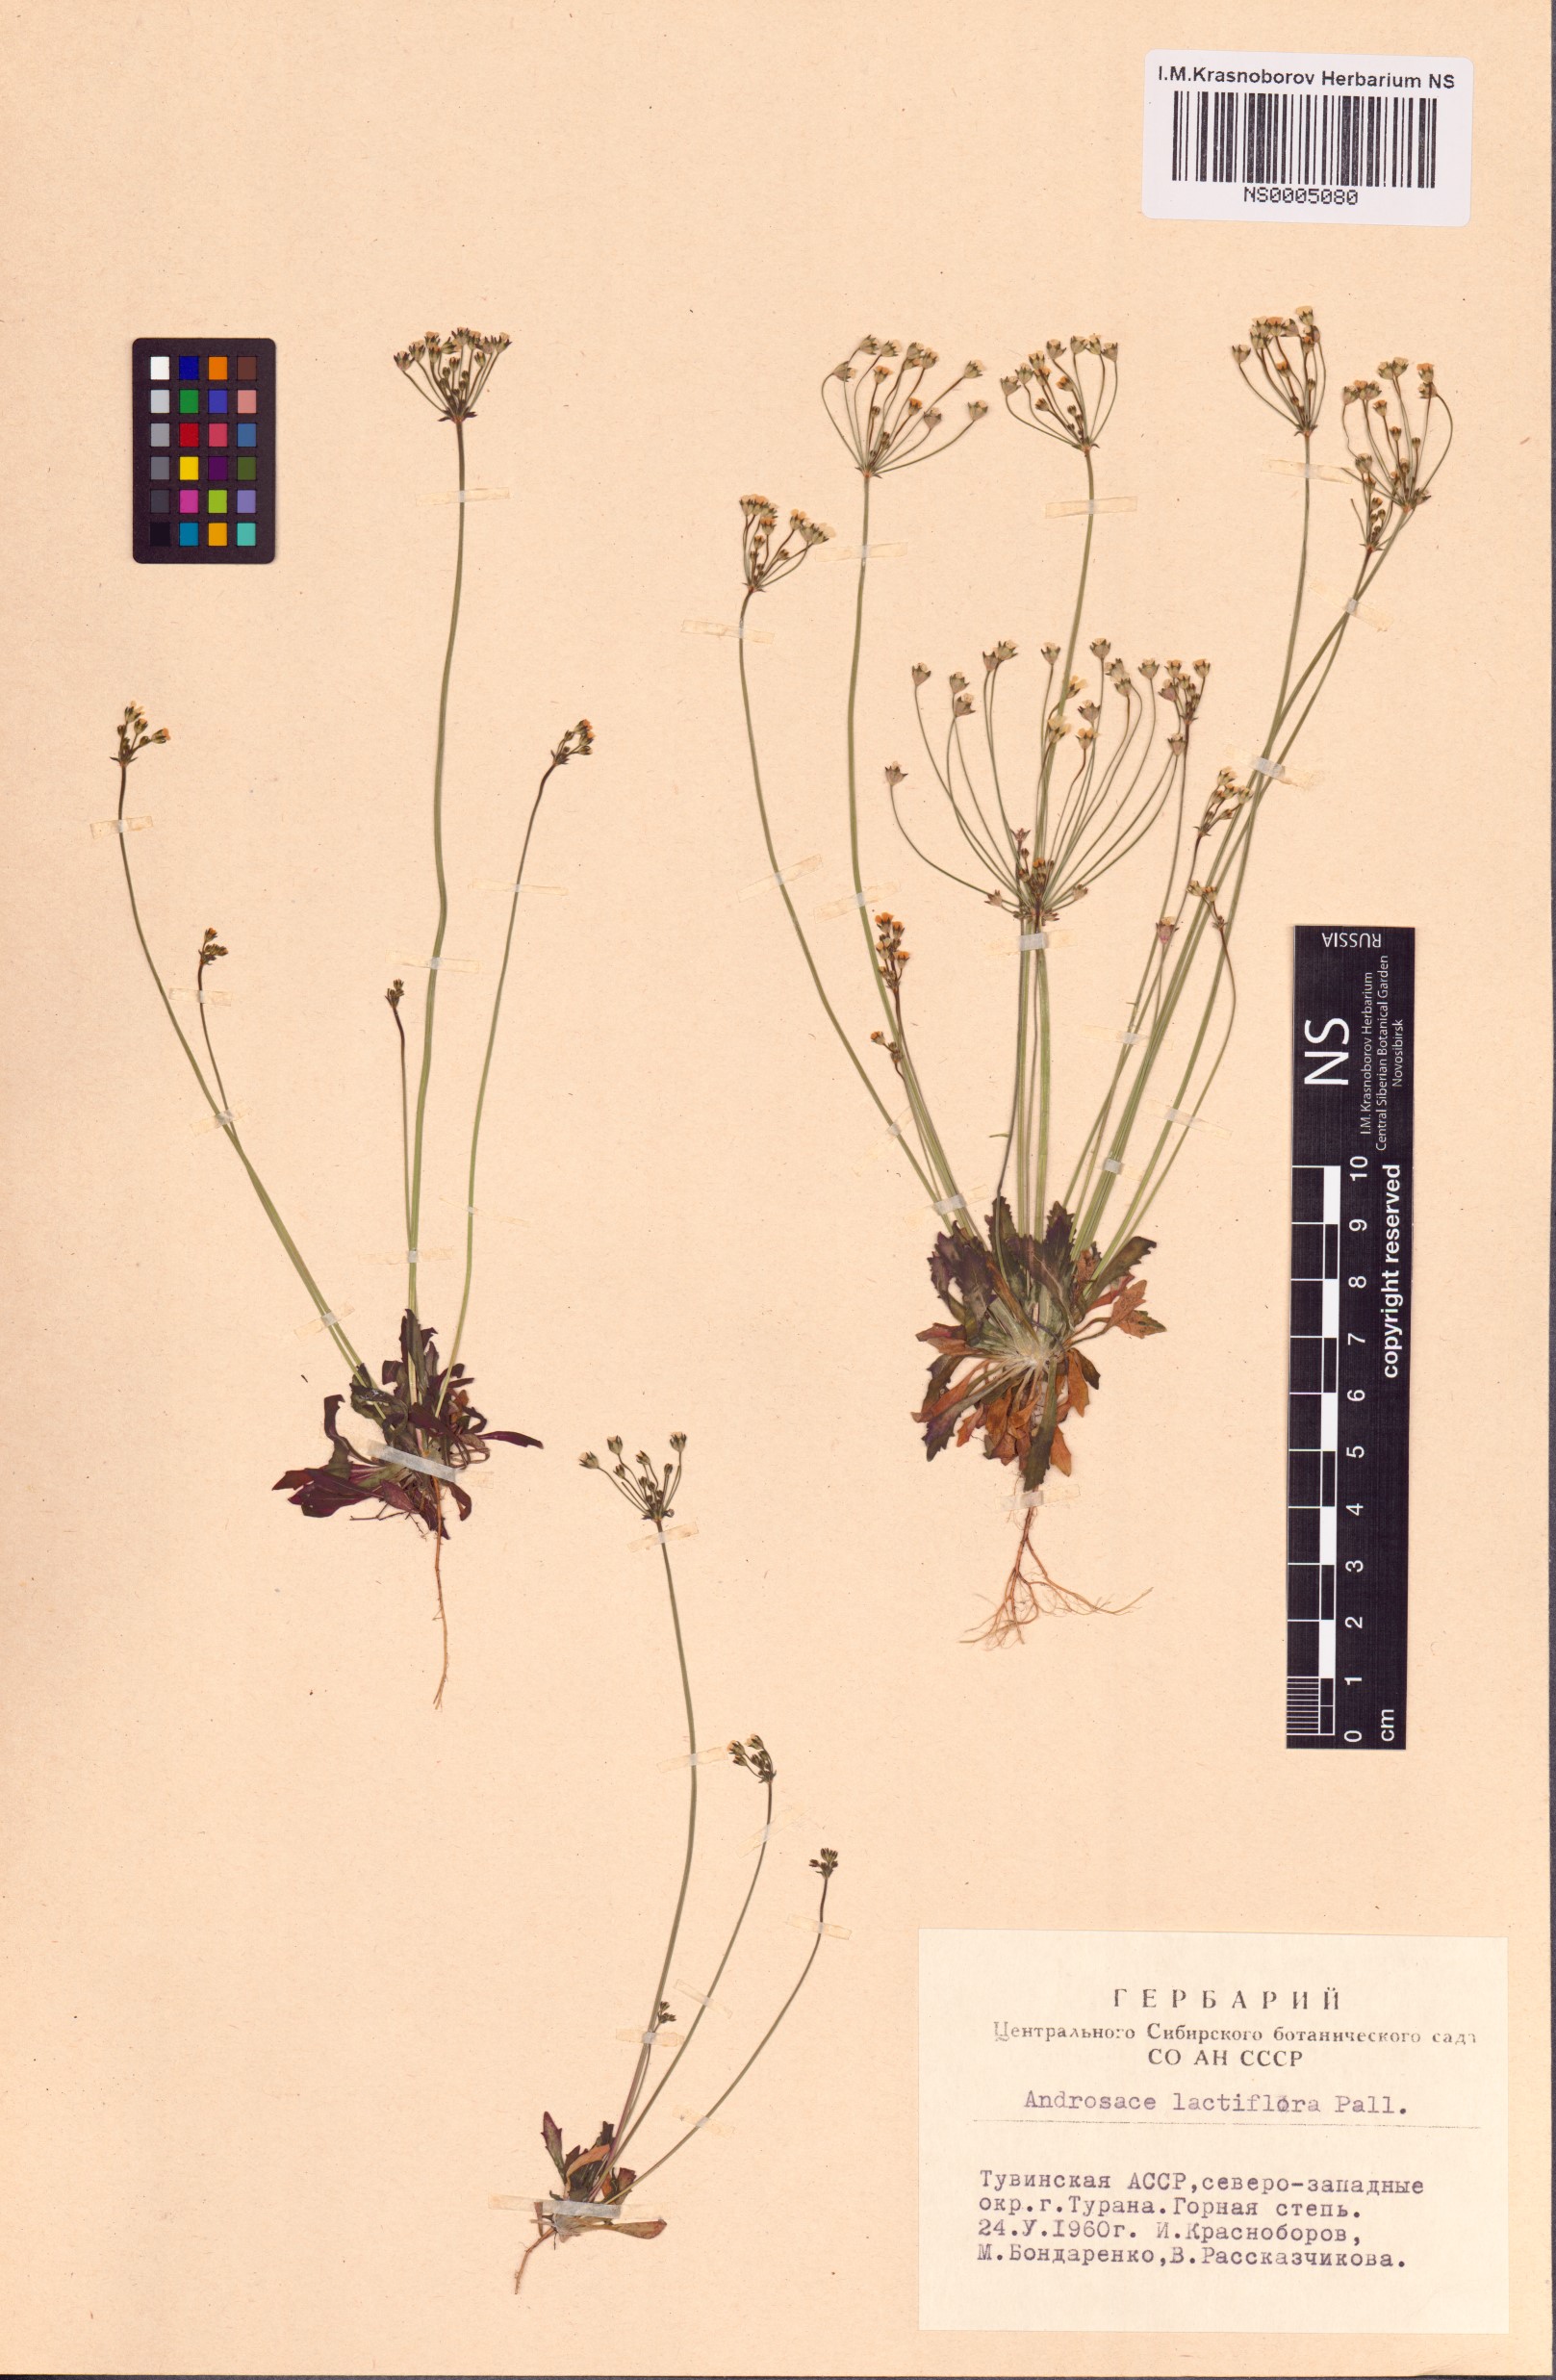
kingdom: Plantae
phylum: Tracheophyta
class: Magnoliopsida
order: Ericales
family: Primulaceae
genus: Androsace
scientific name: Androsace lactiflora
